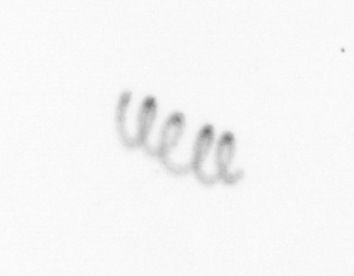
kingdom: Chromista
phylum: Ochrophyta
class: Bacillariophyceae
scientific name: Bacillariophyceae
